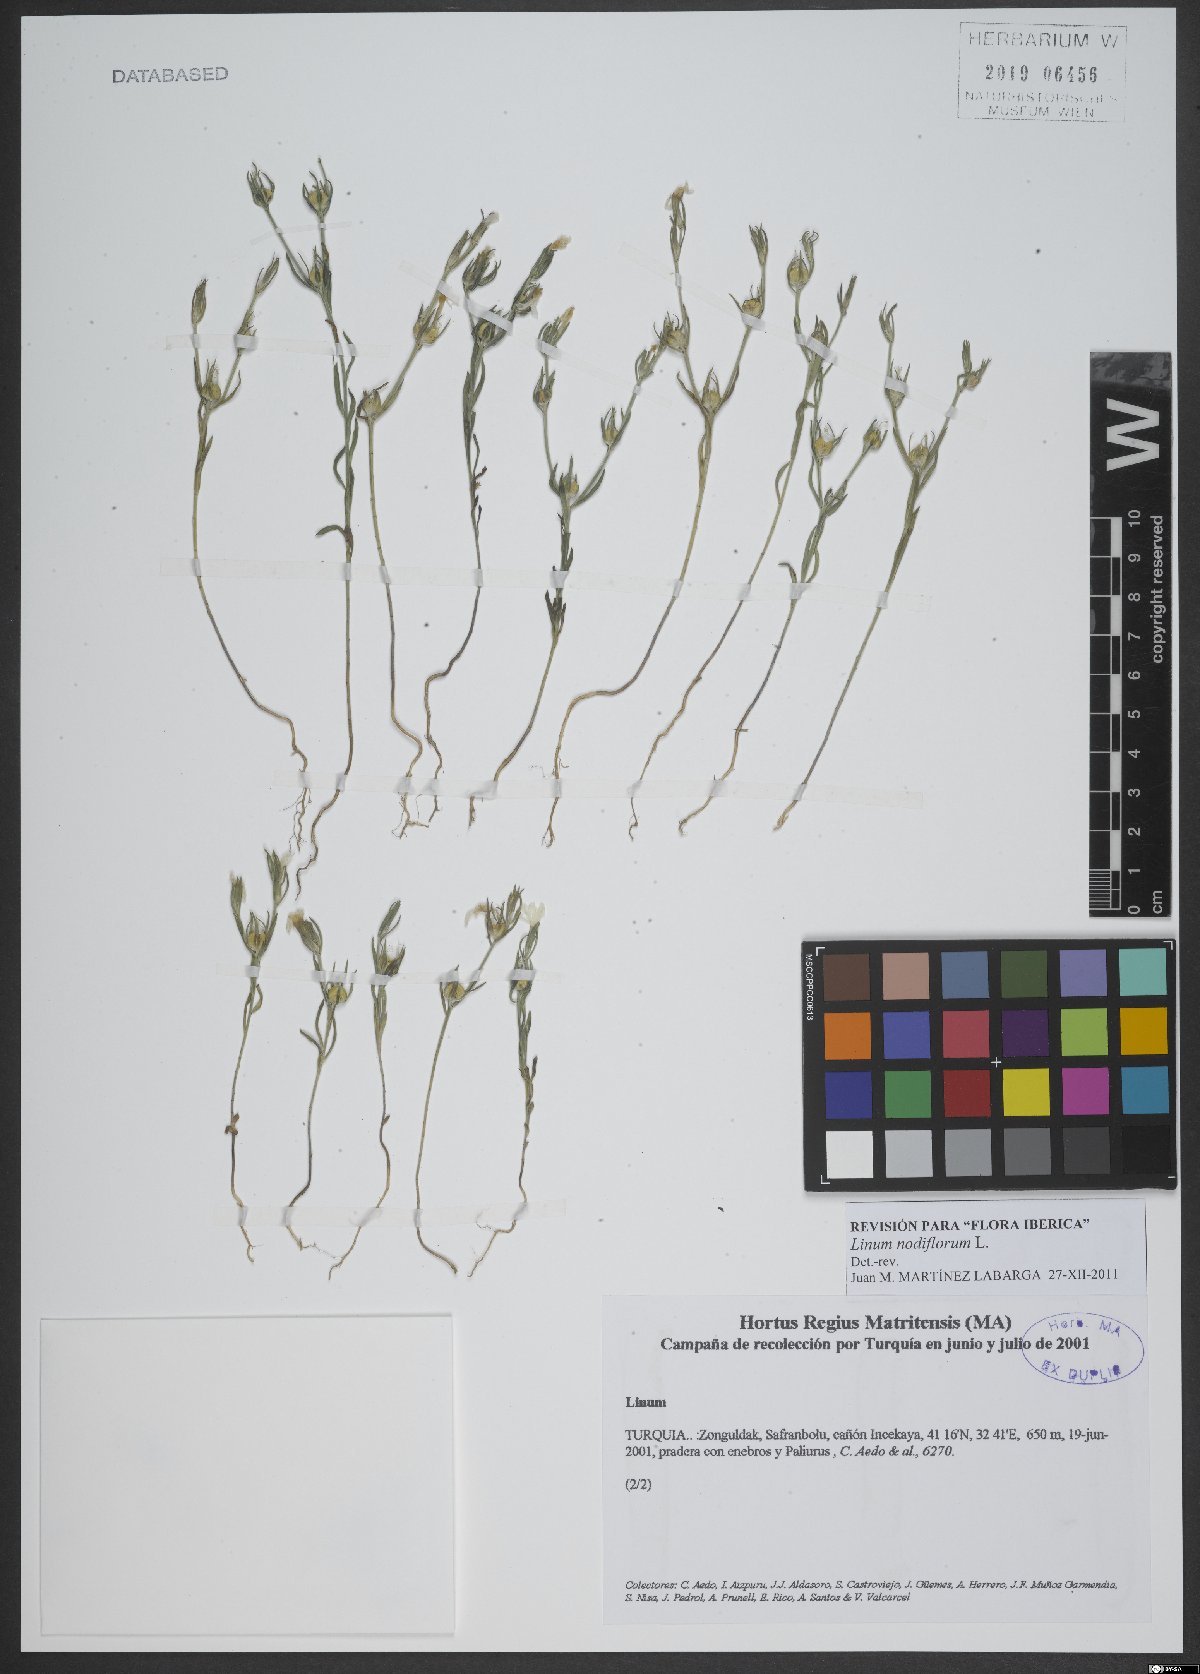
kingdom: Plantae
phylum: Tracheophyta
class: Magnoliopsida
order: Malpighiales
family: Linaceae
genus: Linum
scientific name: Linum nodiflorum
